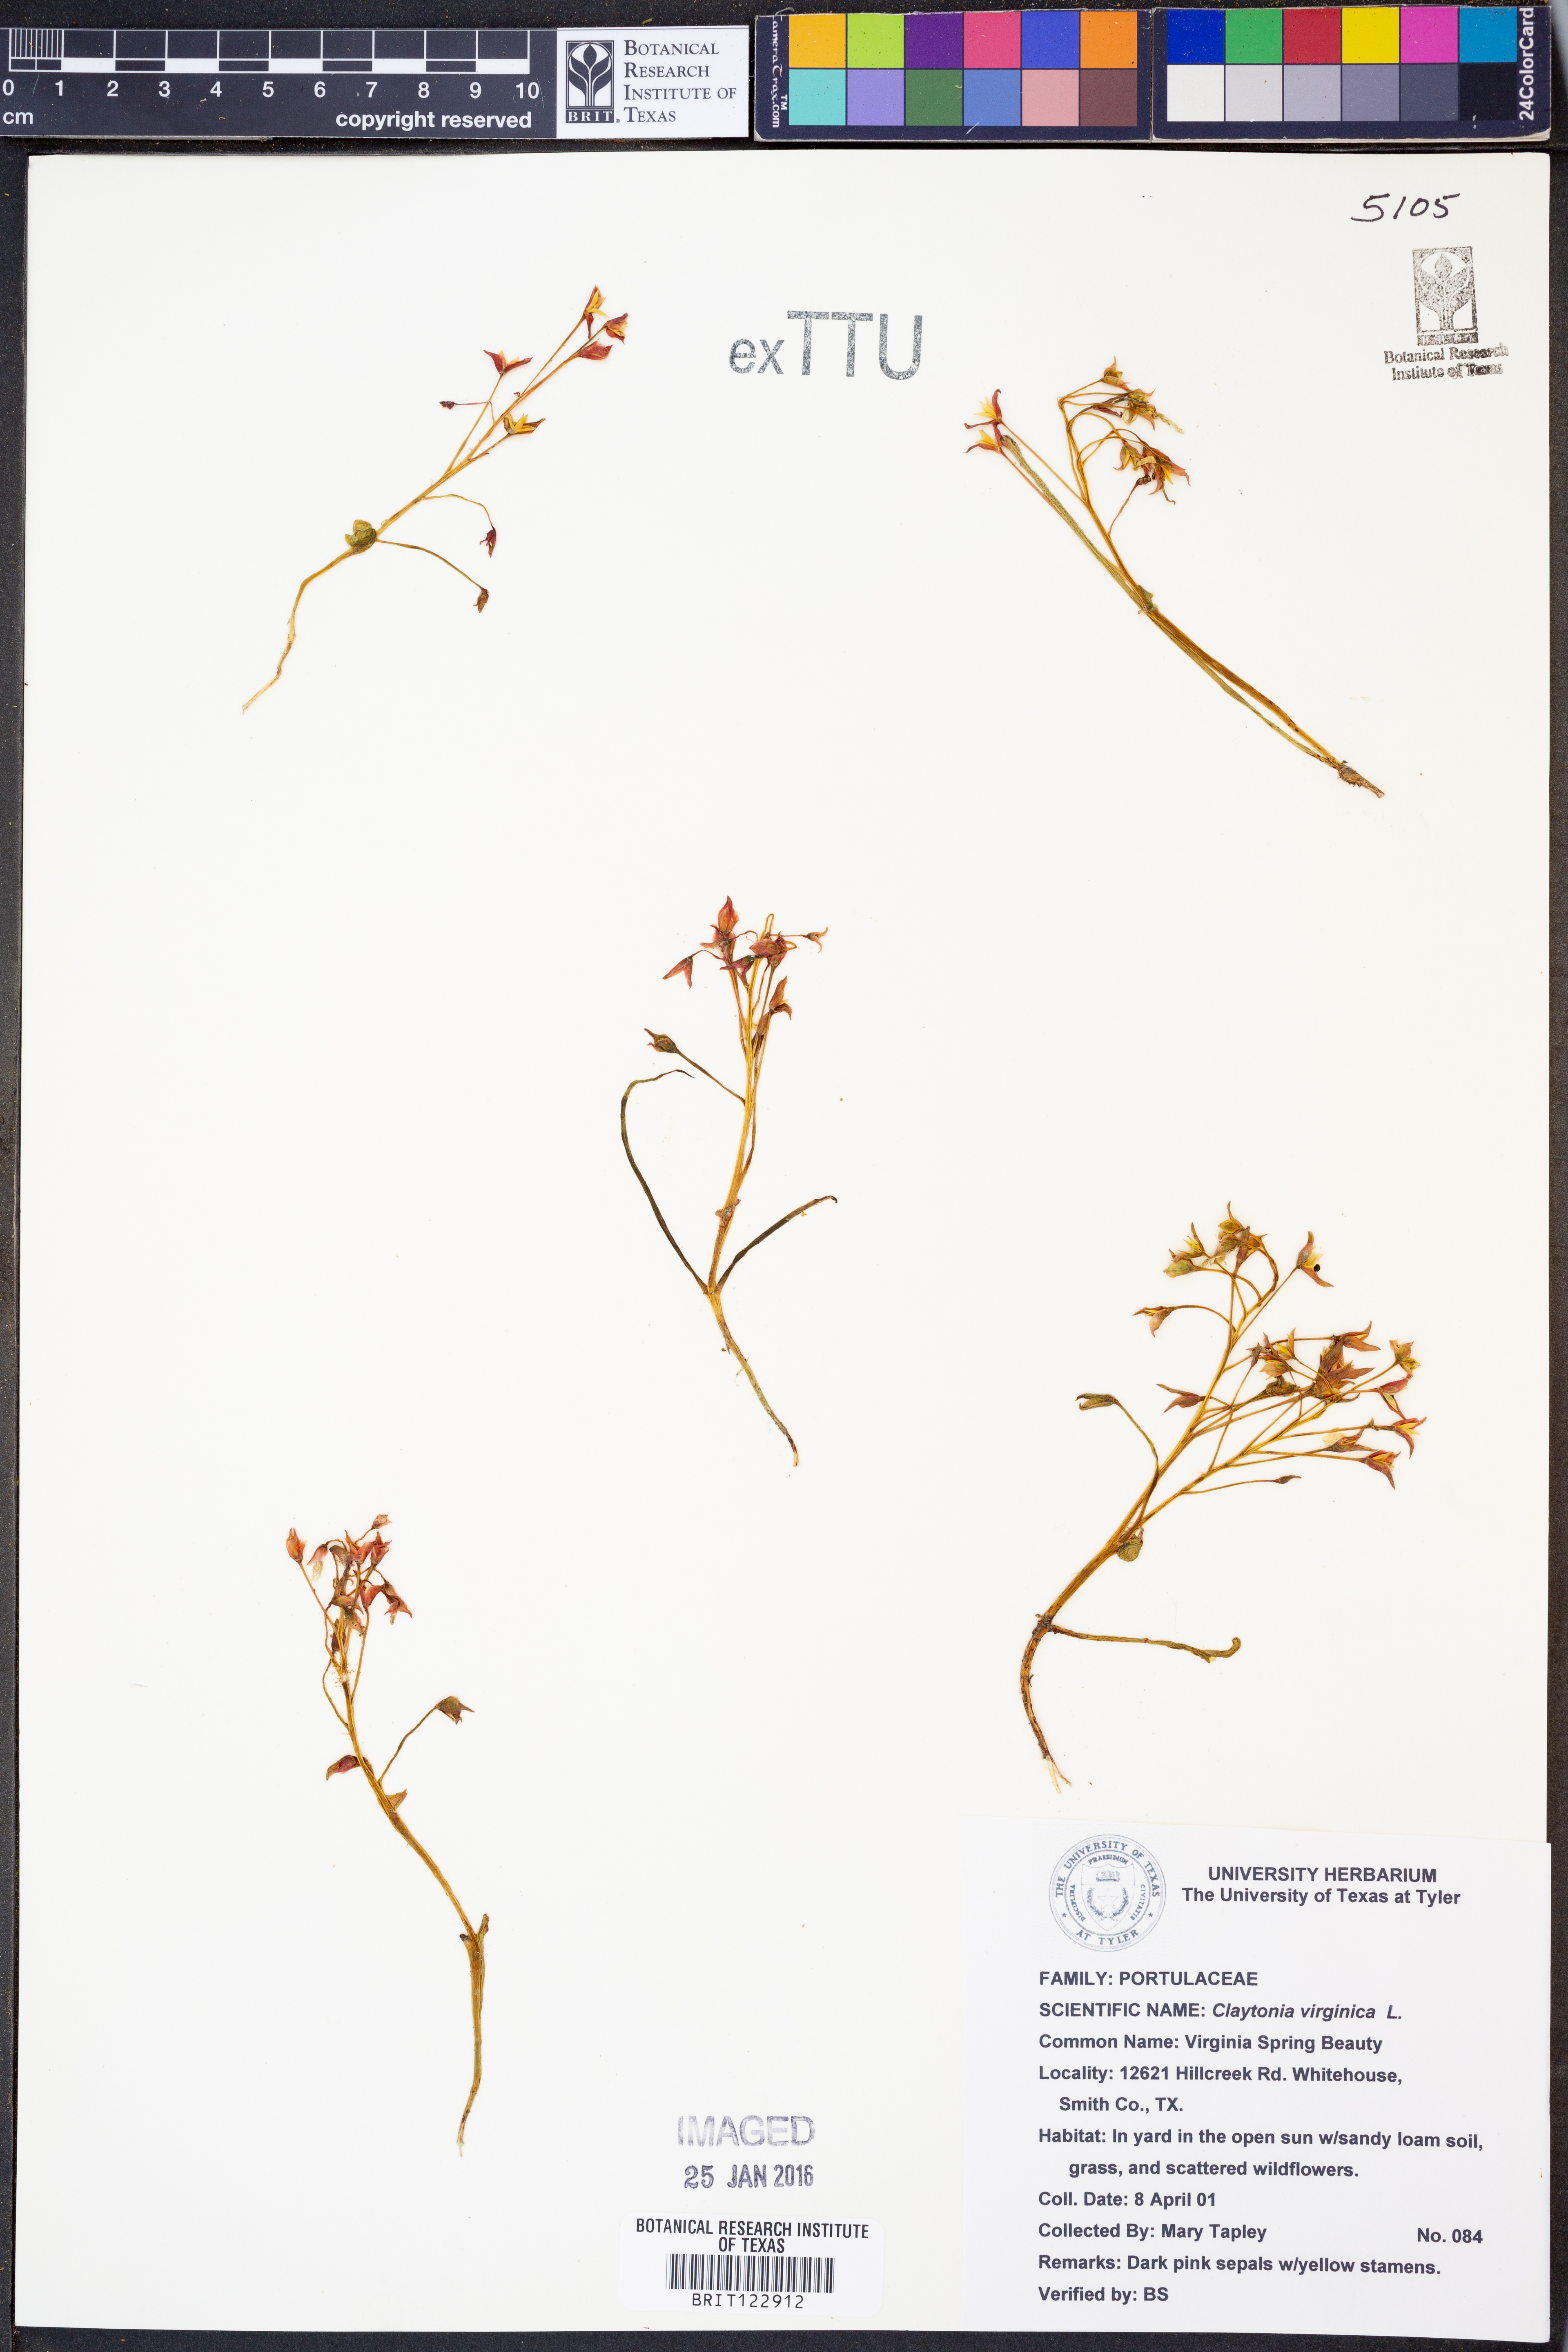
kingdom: Plantae
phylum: Tracheophyta
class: Magnoliopsida
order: Caryophyllales
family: Montiaceae
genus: Claytonia
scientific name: Claytonia virginica
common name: Virginia springbeauty
